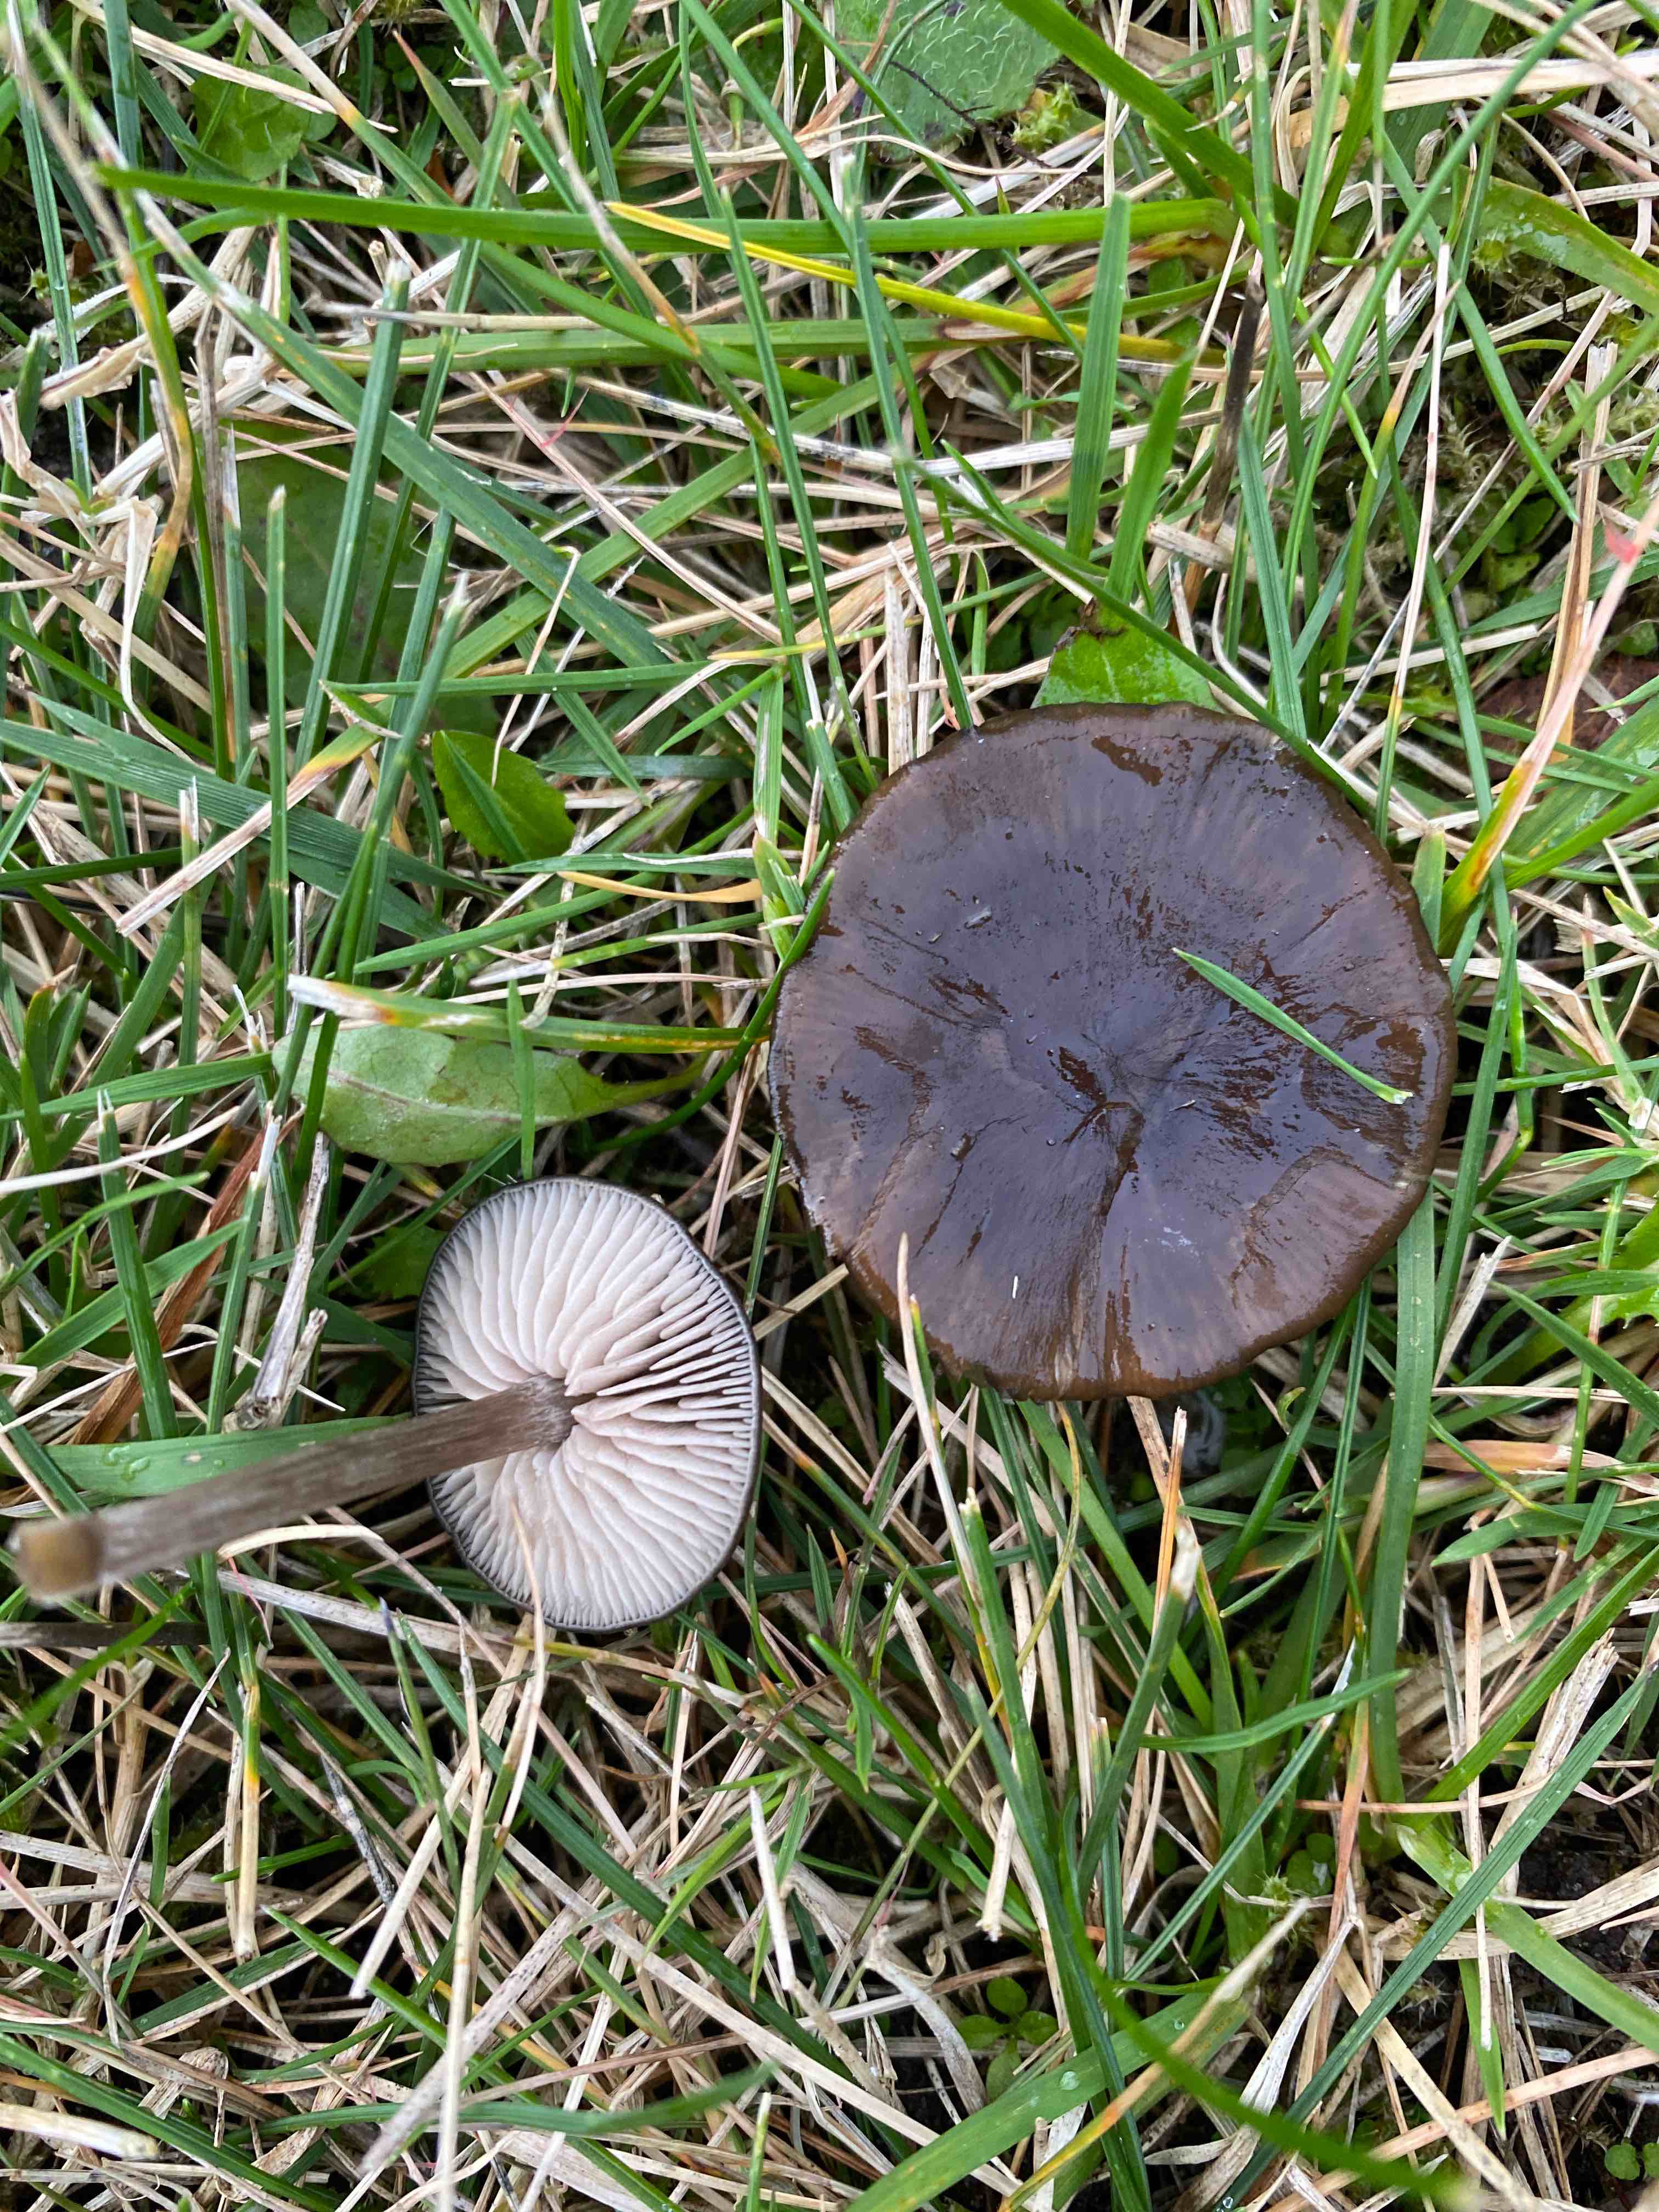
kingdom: Fungi
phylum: Basidiomycota
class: Agaricomycetes
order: Agaricales
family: Entolomataceae
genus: Entoloma
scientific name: Entoloma
